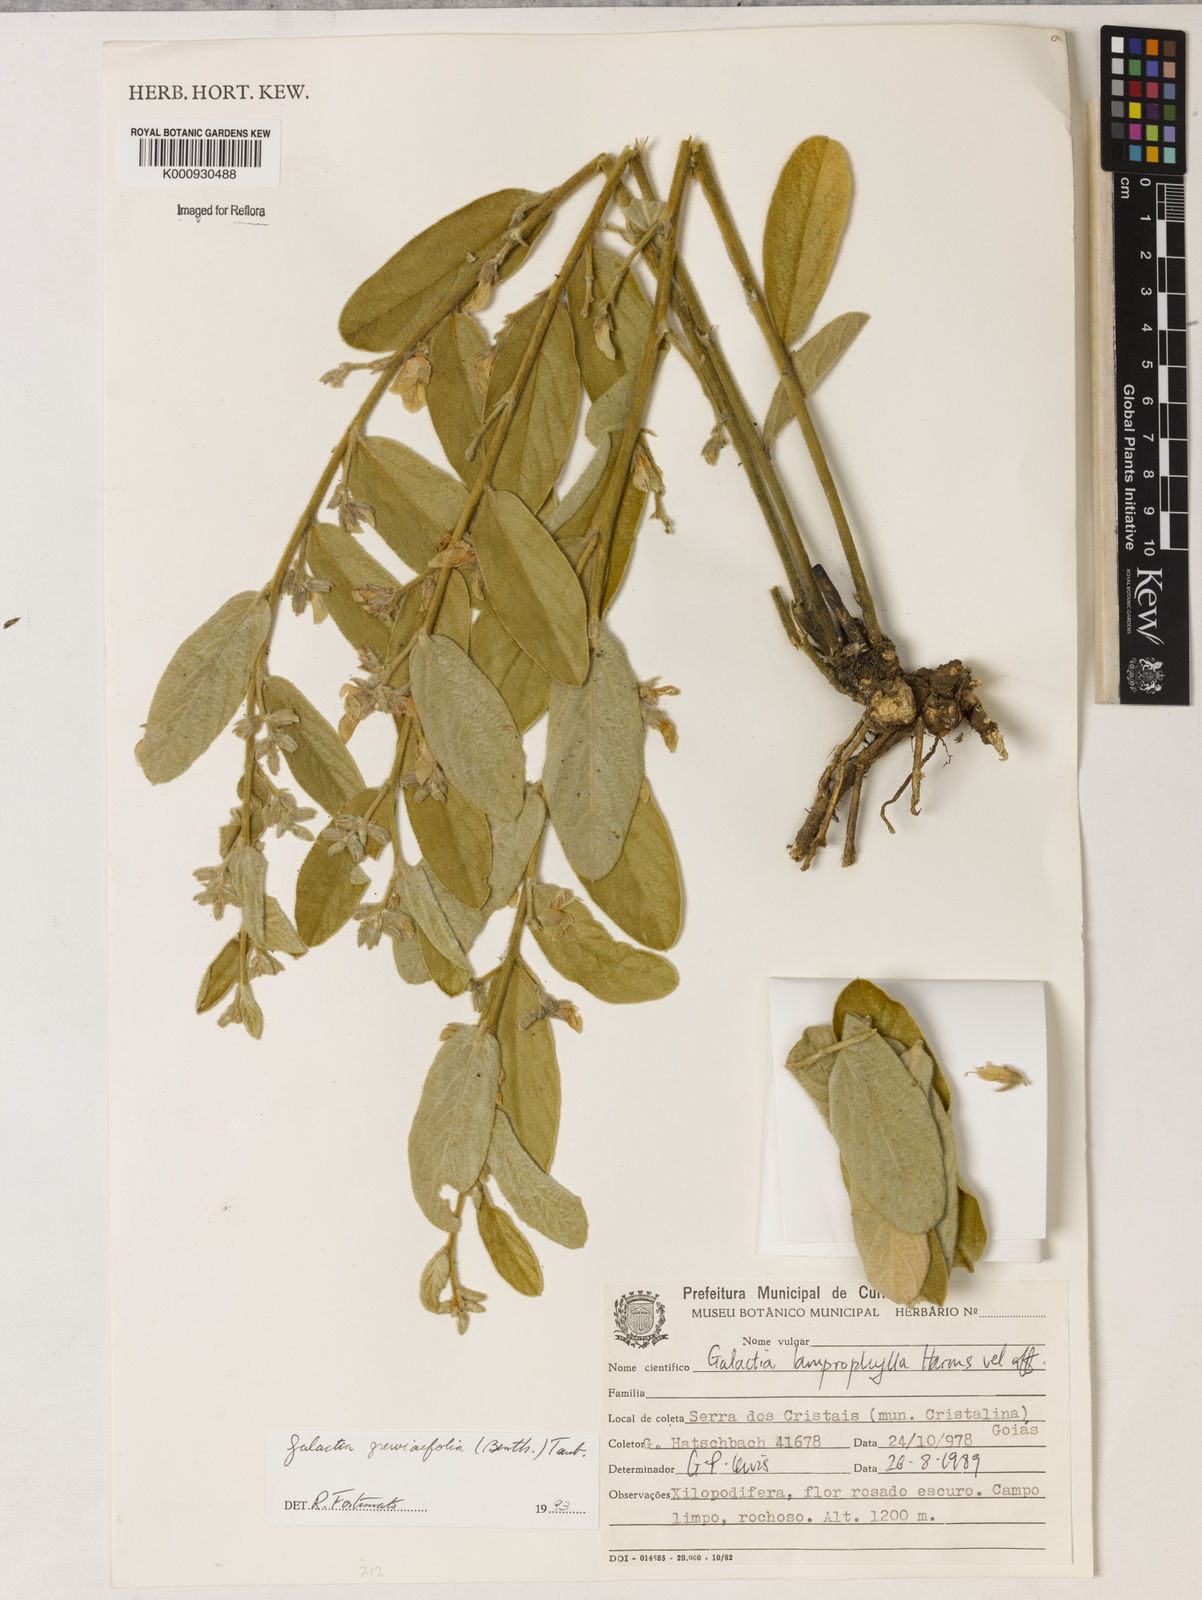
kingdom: Plantae
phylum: Tracheophyta
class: Magnoliopsida
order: Fabales
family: Fabaceae
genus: Galactia
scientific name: Galactia
